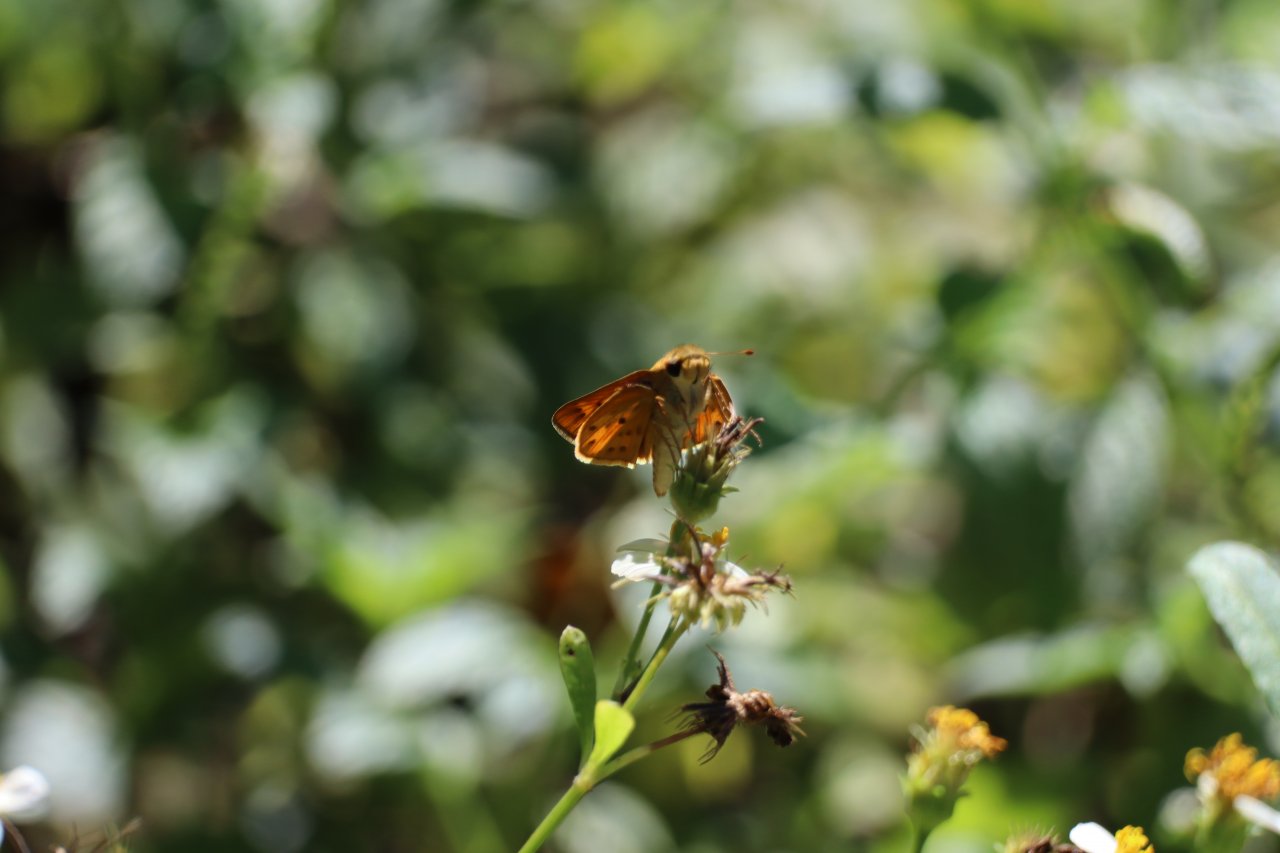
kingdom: Animalia
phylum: Arthropoda
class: Insecta
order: Lepidoptera
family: Hesperiidae
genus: Hylephila
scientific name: Hylephila phyleus
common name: Fiery Skipper
